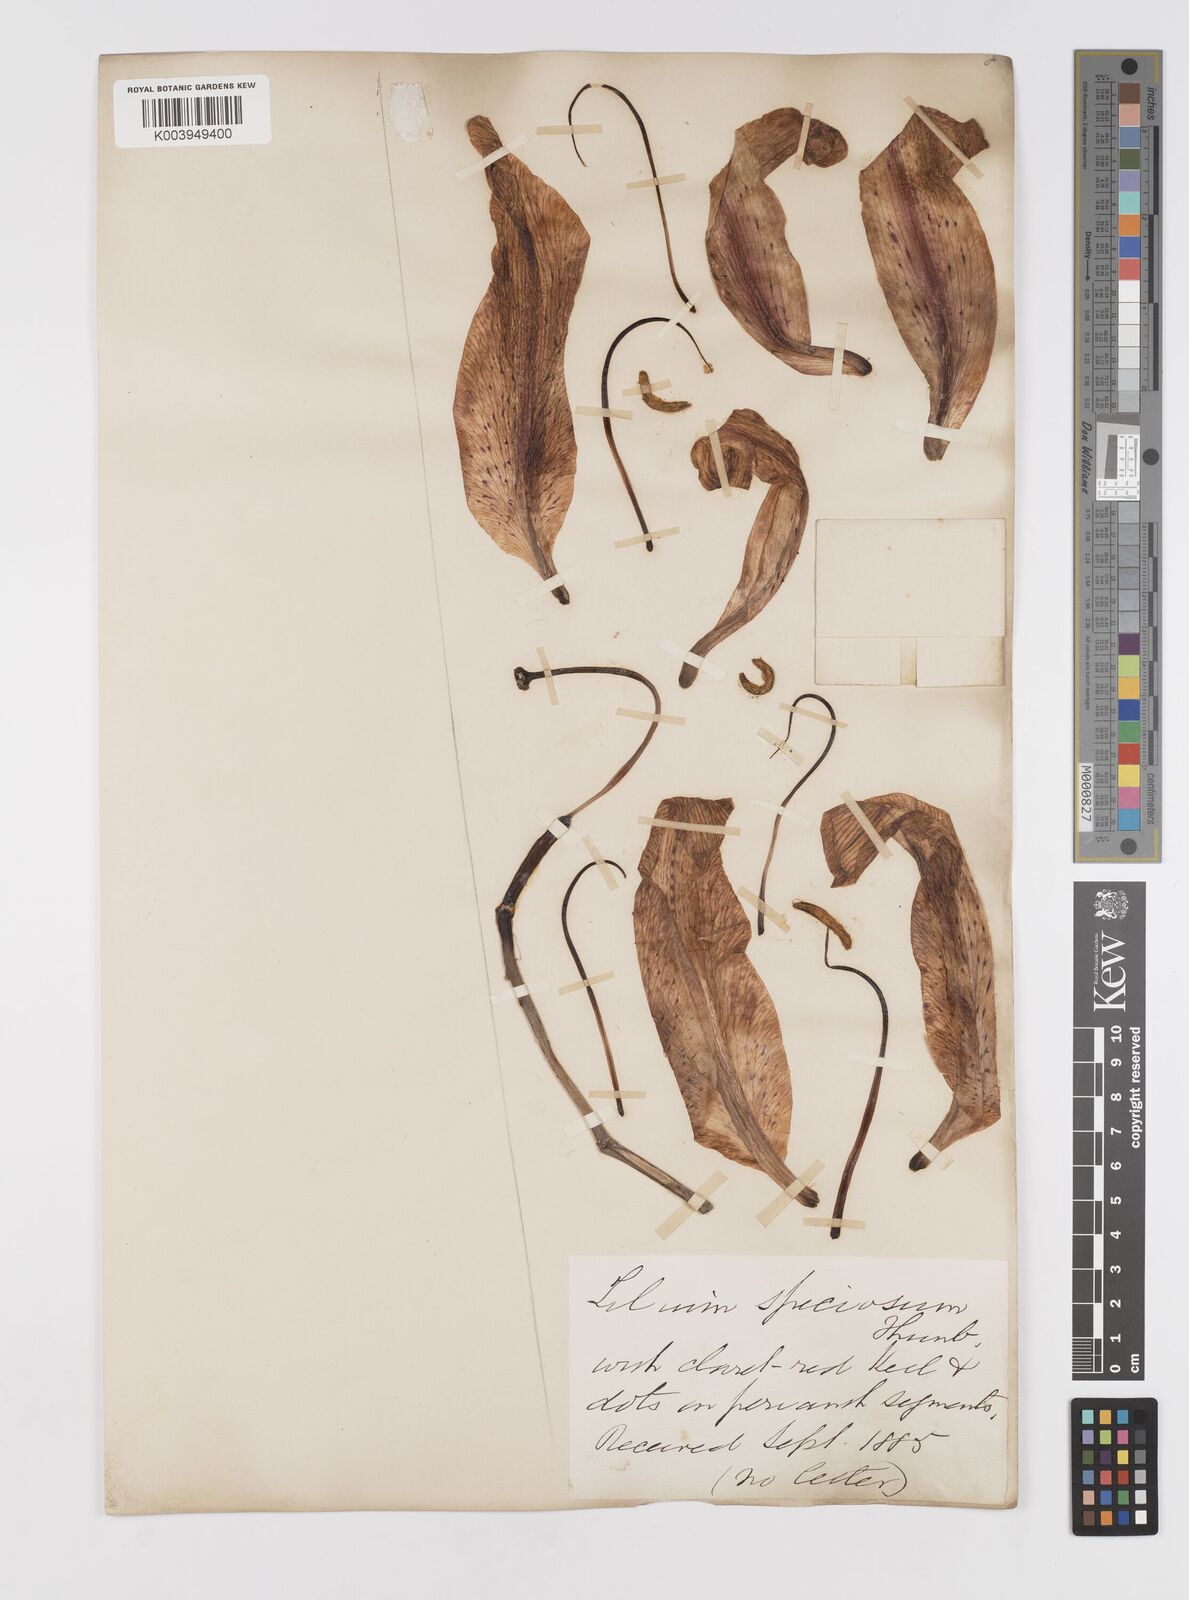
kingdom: Plantae
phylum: Tracheophyta
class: Liliopsida
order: Liliales
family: Liliaceae
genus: Lilium
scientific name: Lilium speciosum
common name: Japanese lily
